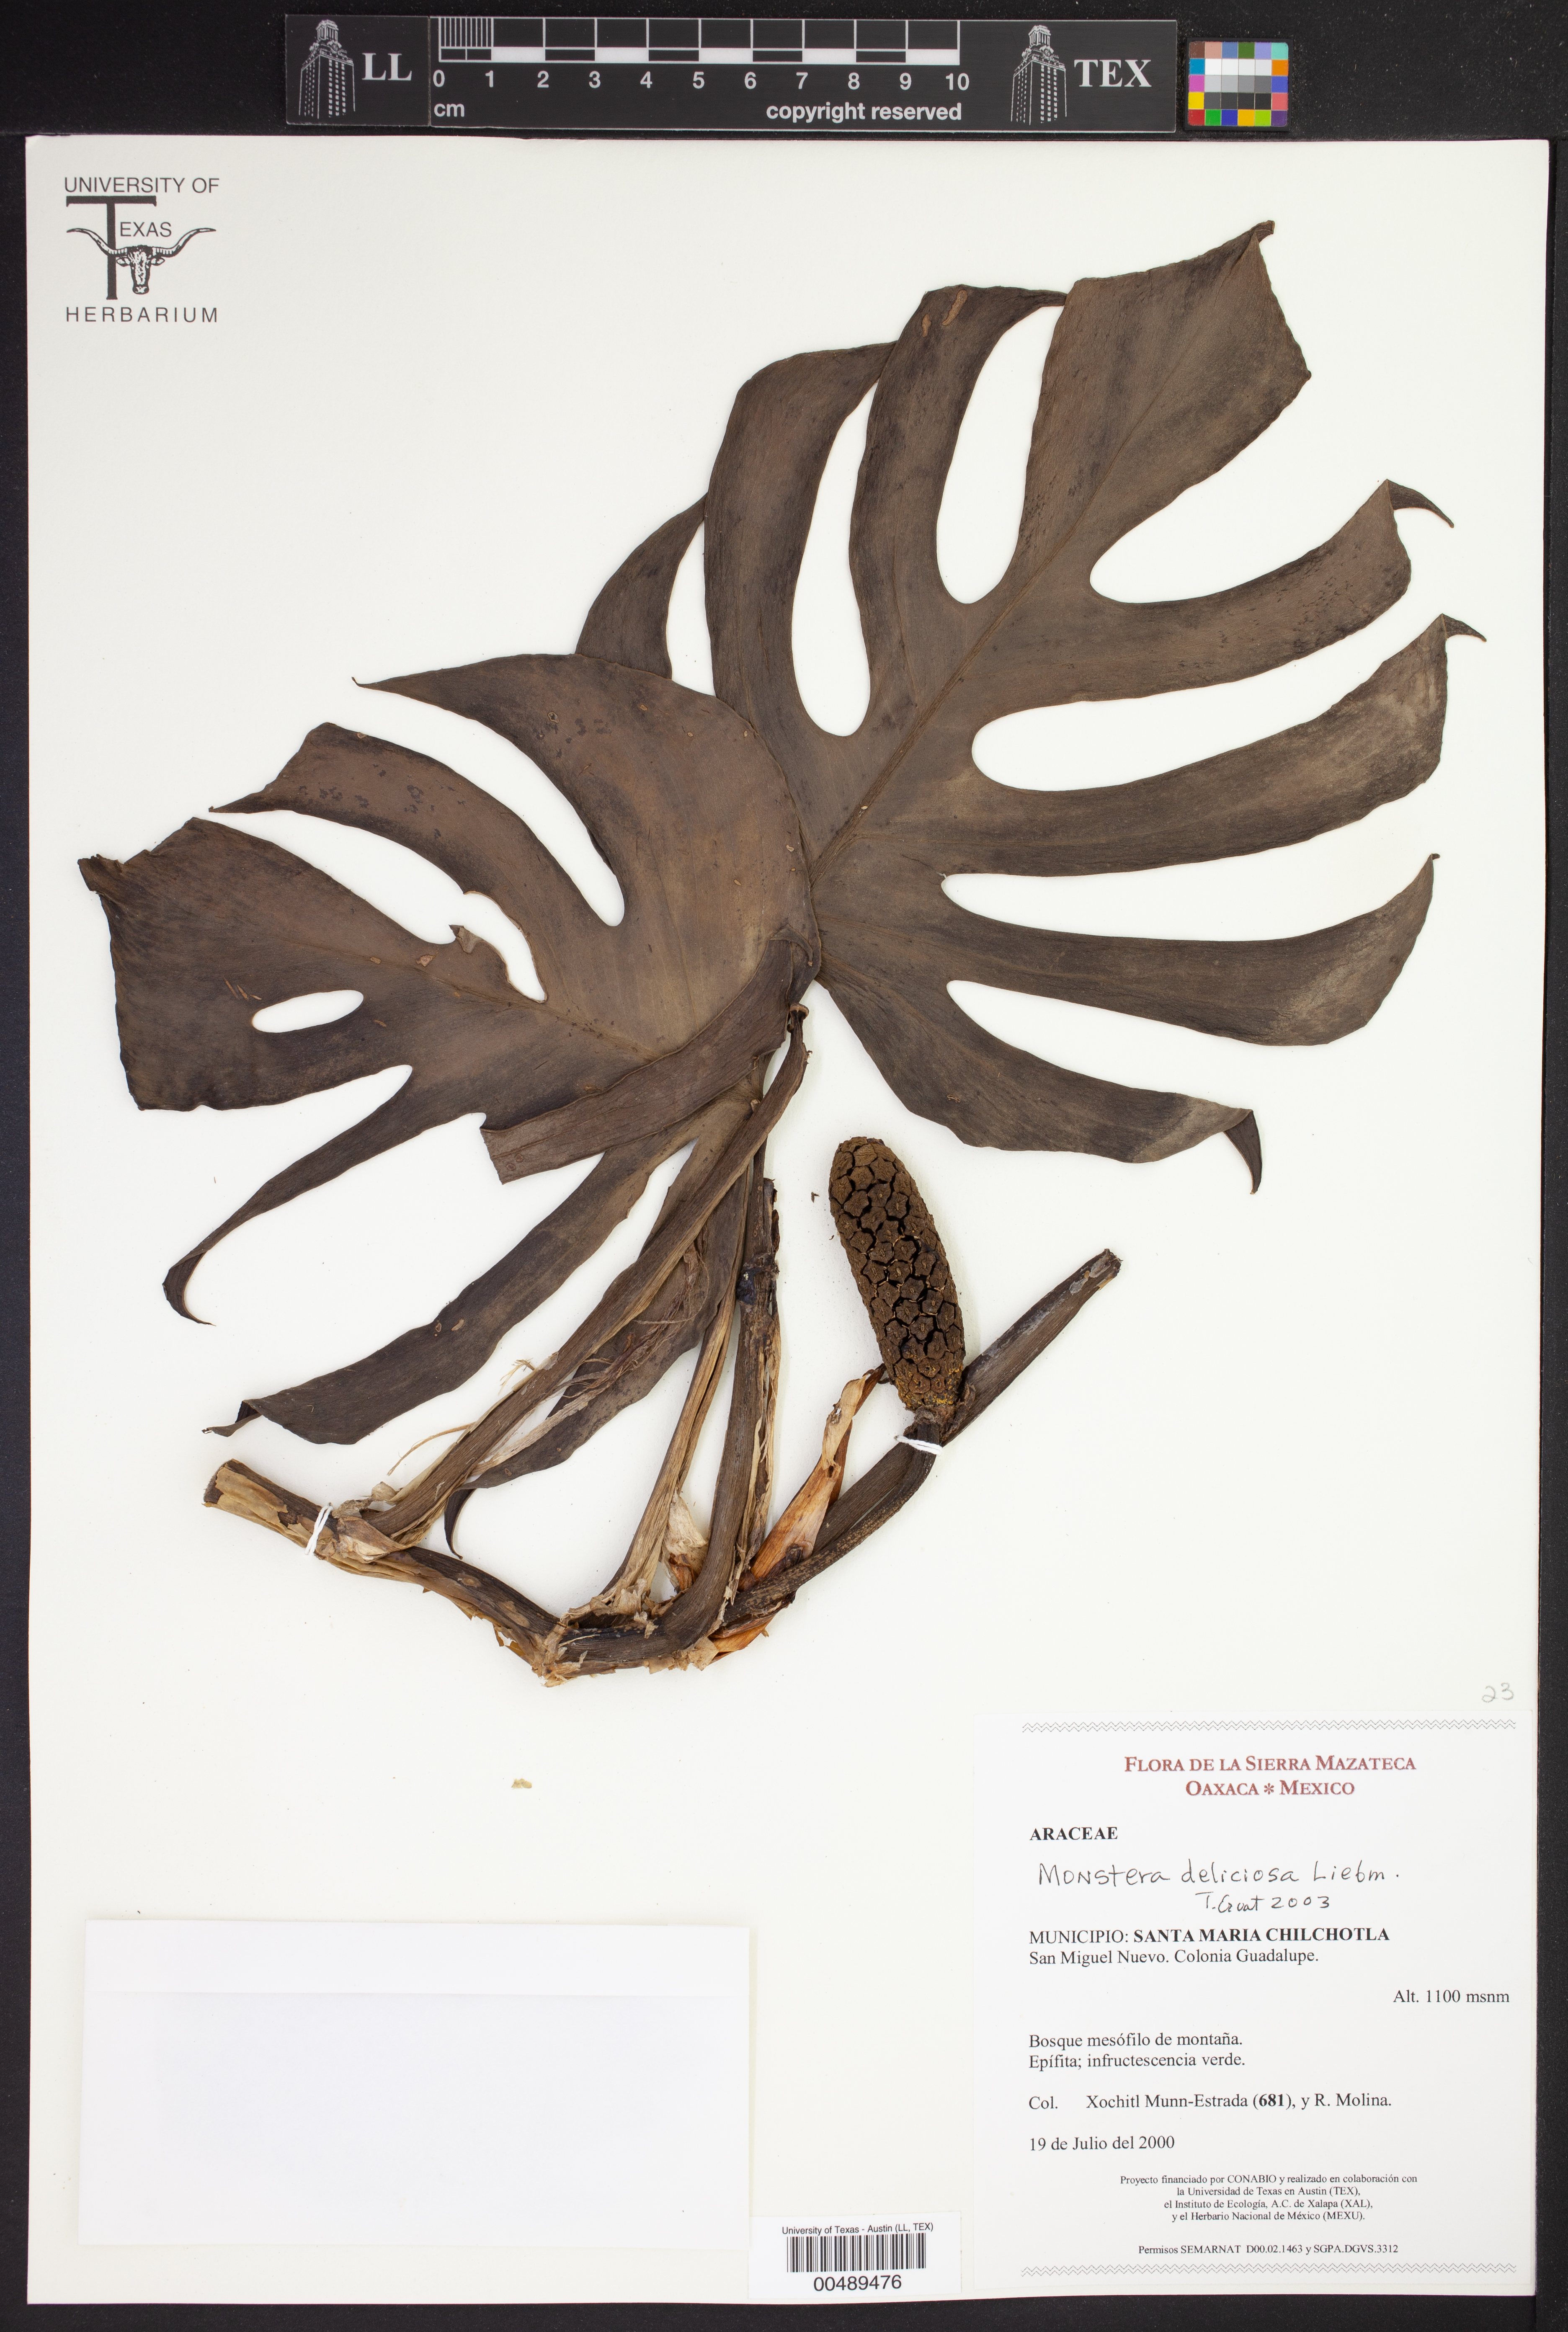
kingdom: Plantae
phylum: Tracheophyta
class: Liliopsida
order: Alismatales
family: Araceae
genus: Monstera
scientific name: Monstera deliciosa
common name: Cut-leaf-philodendron
